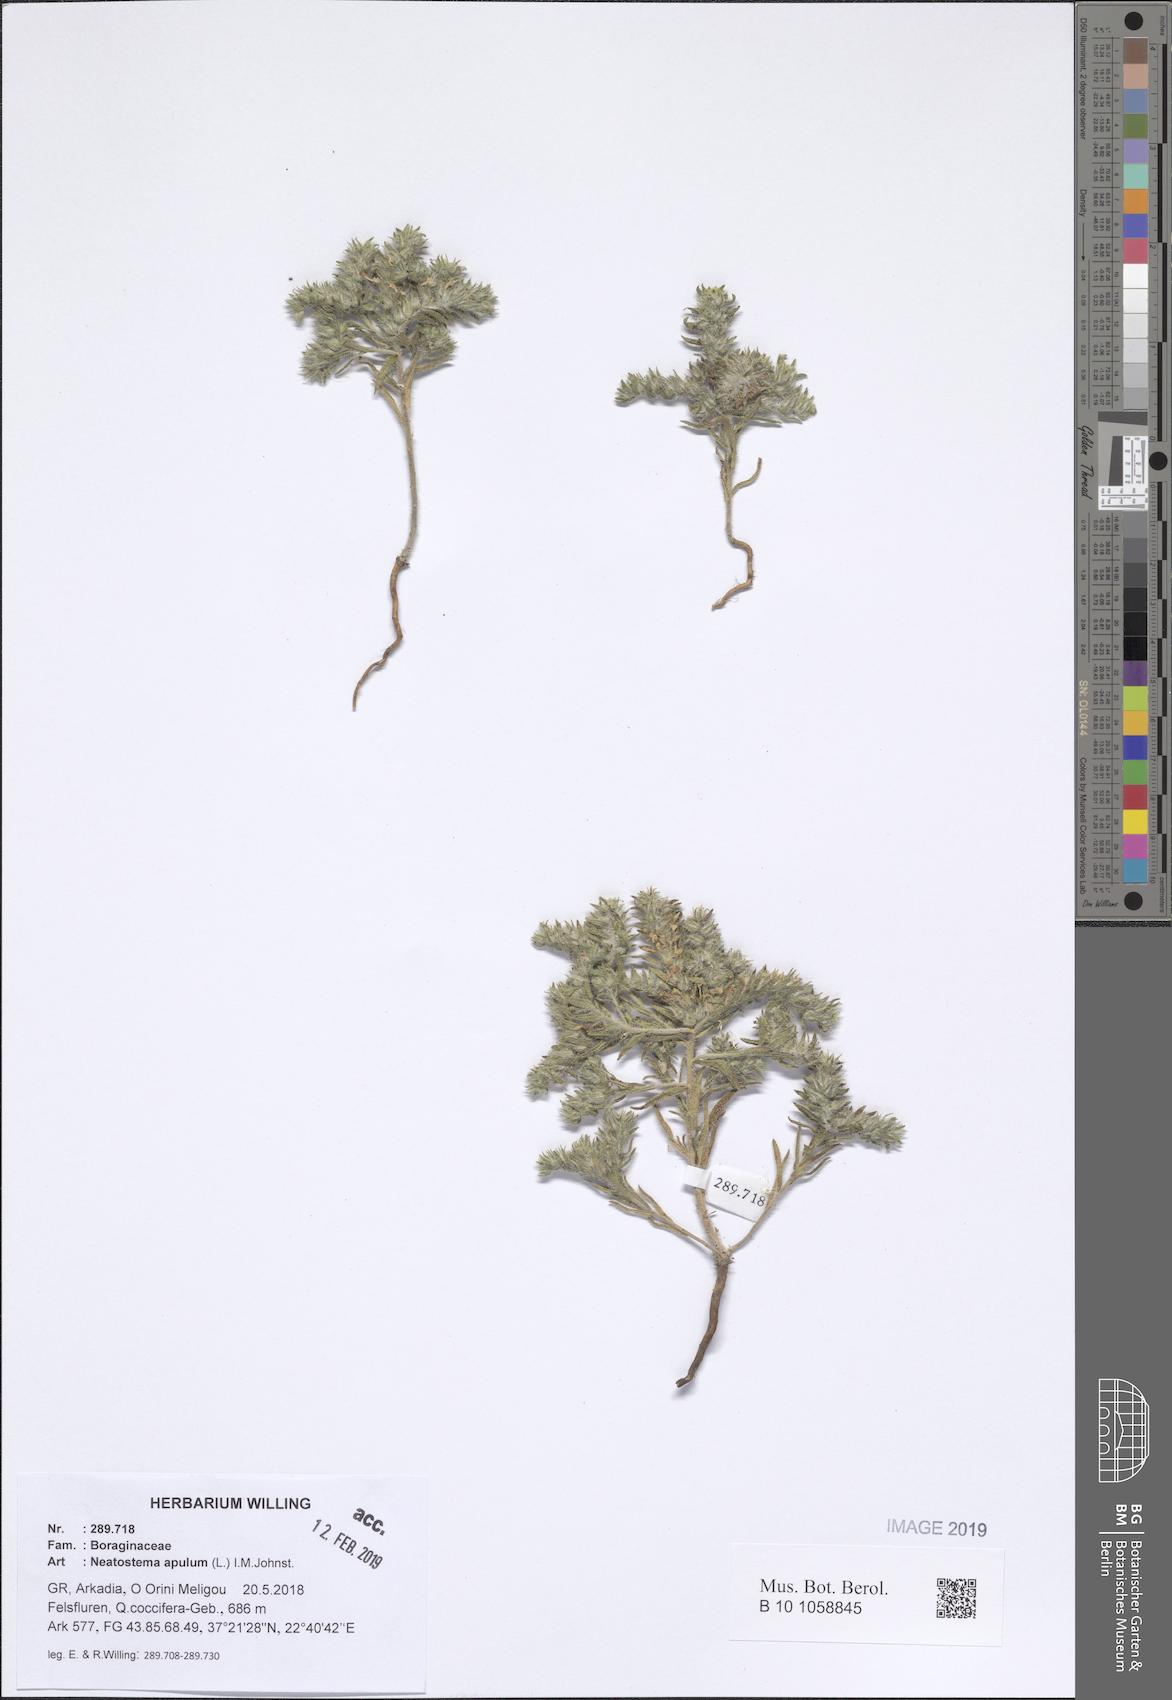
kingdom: Plantae
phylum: Tracheophyta
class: Magnoliopsida
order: Boraginales
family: Boraginaceae
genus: Neatostema
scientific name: Neatostema apulum
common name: Hairy sheepweed
